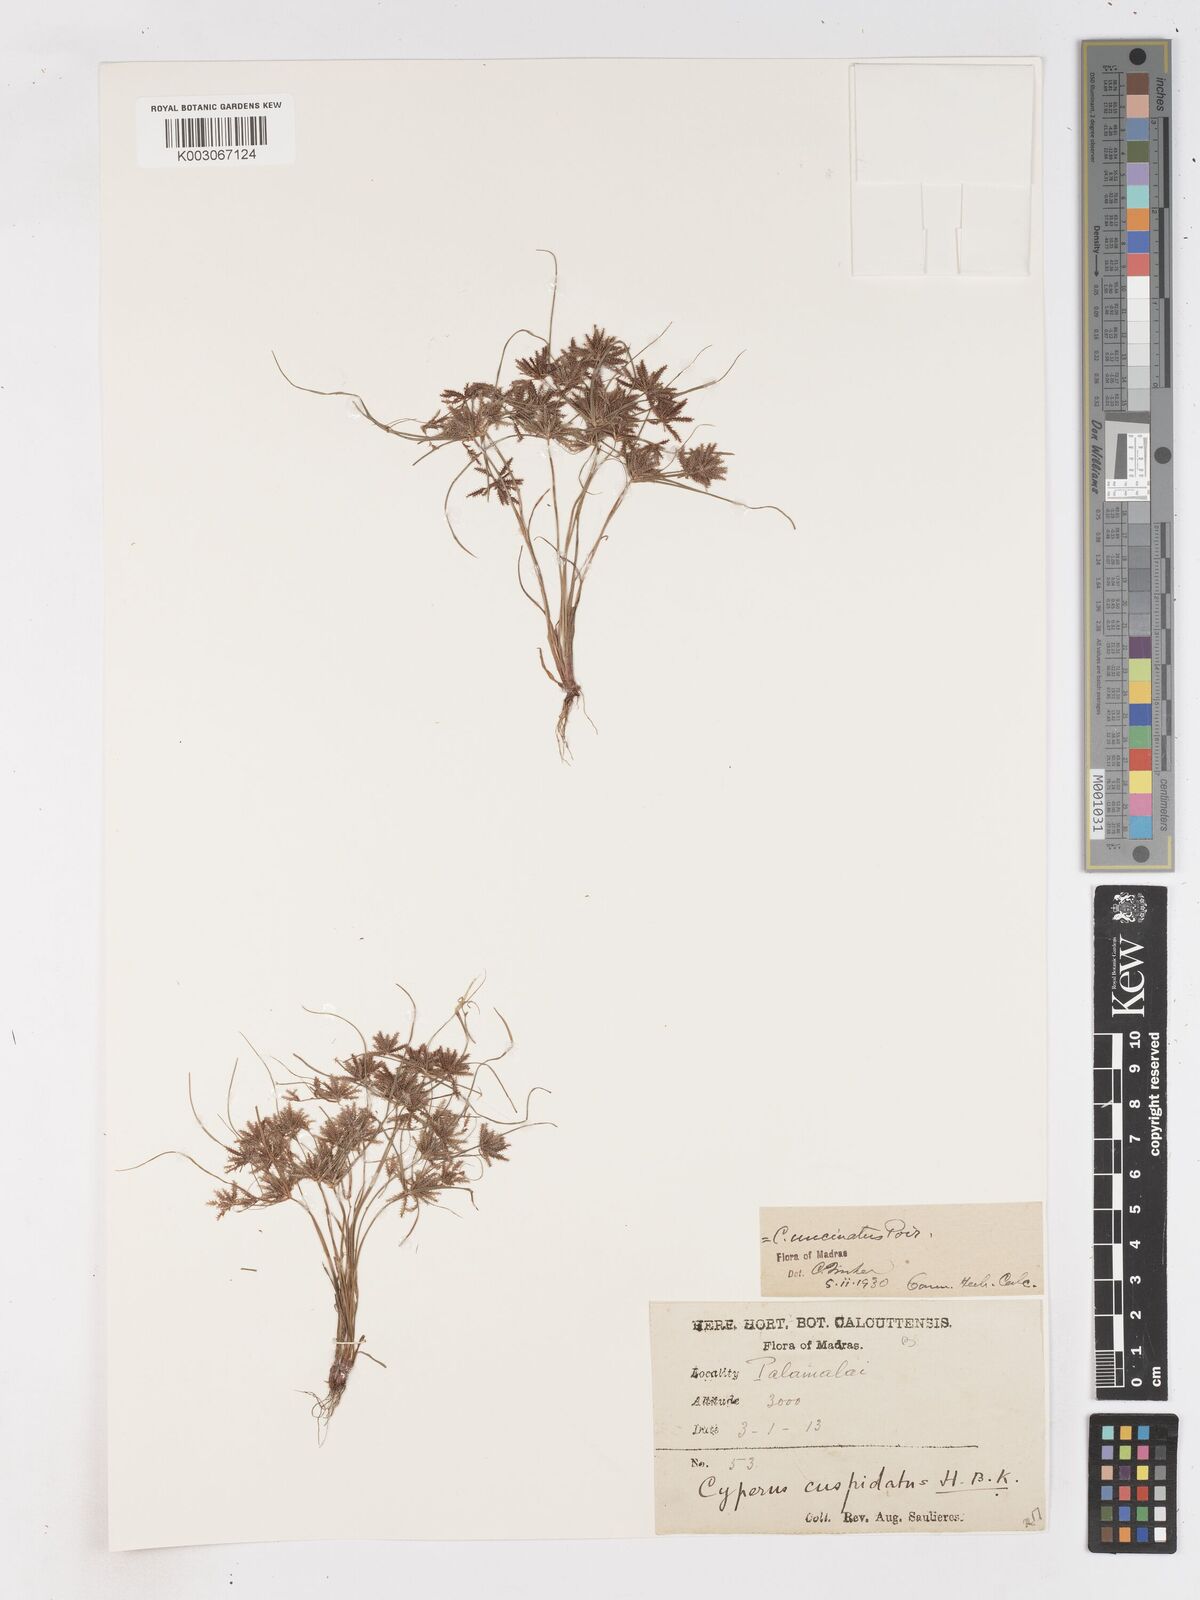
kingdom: Plantae
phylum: Tracheophyta
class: Liliopsida
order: Poales
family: Cyperaceae
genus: Cyperus
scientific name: Cyperus cuspidatus
